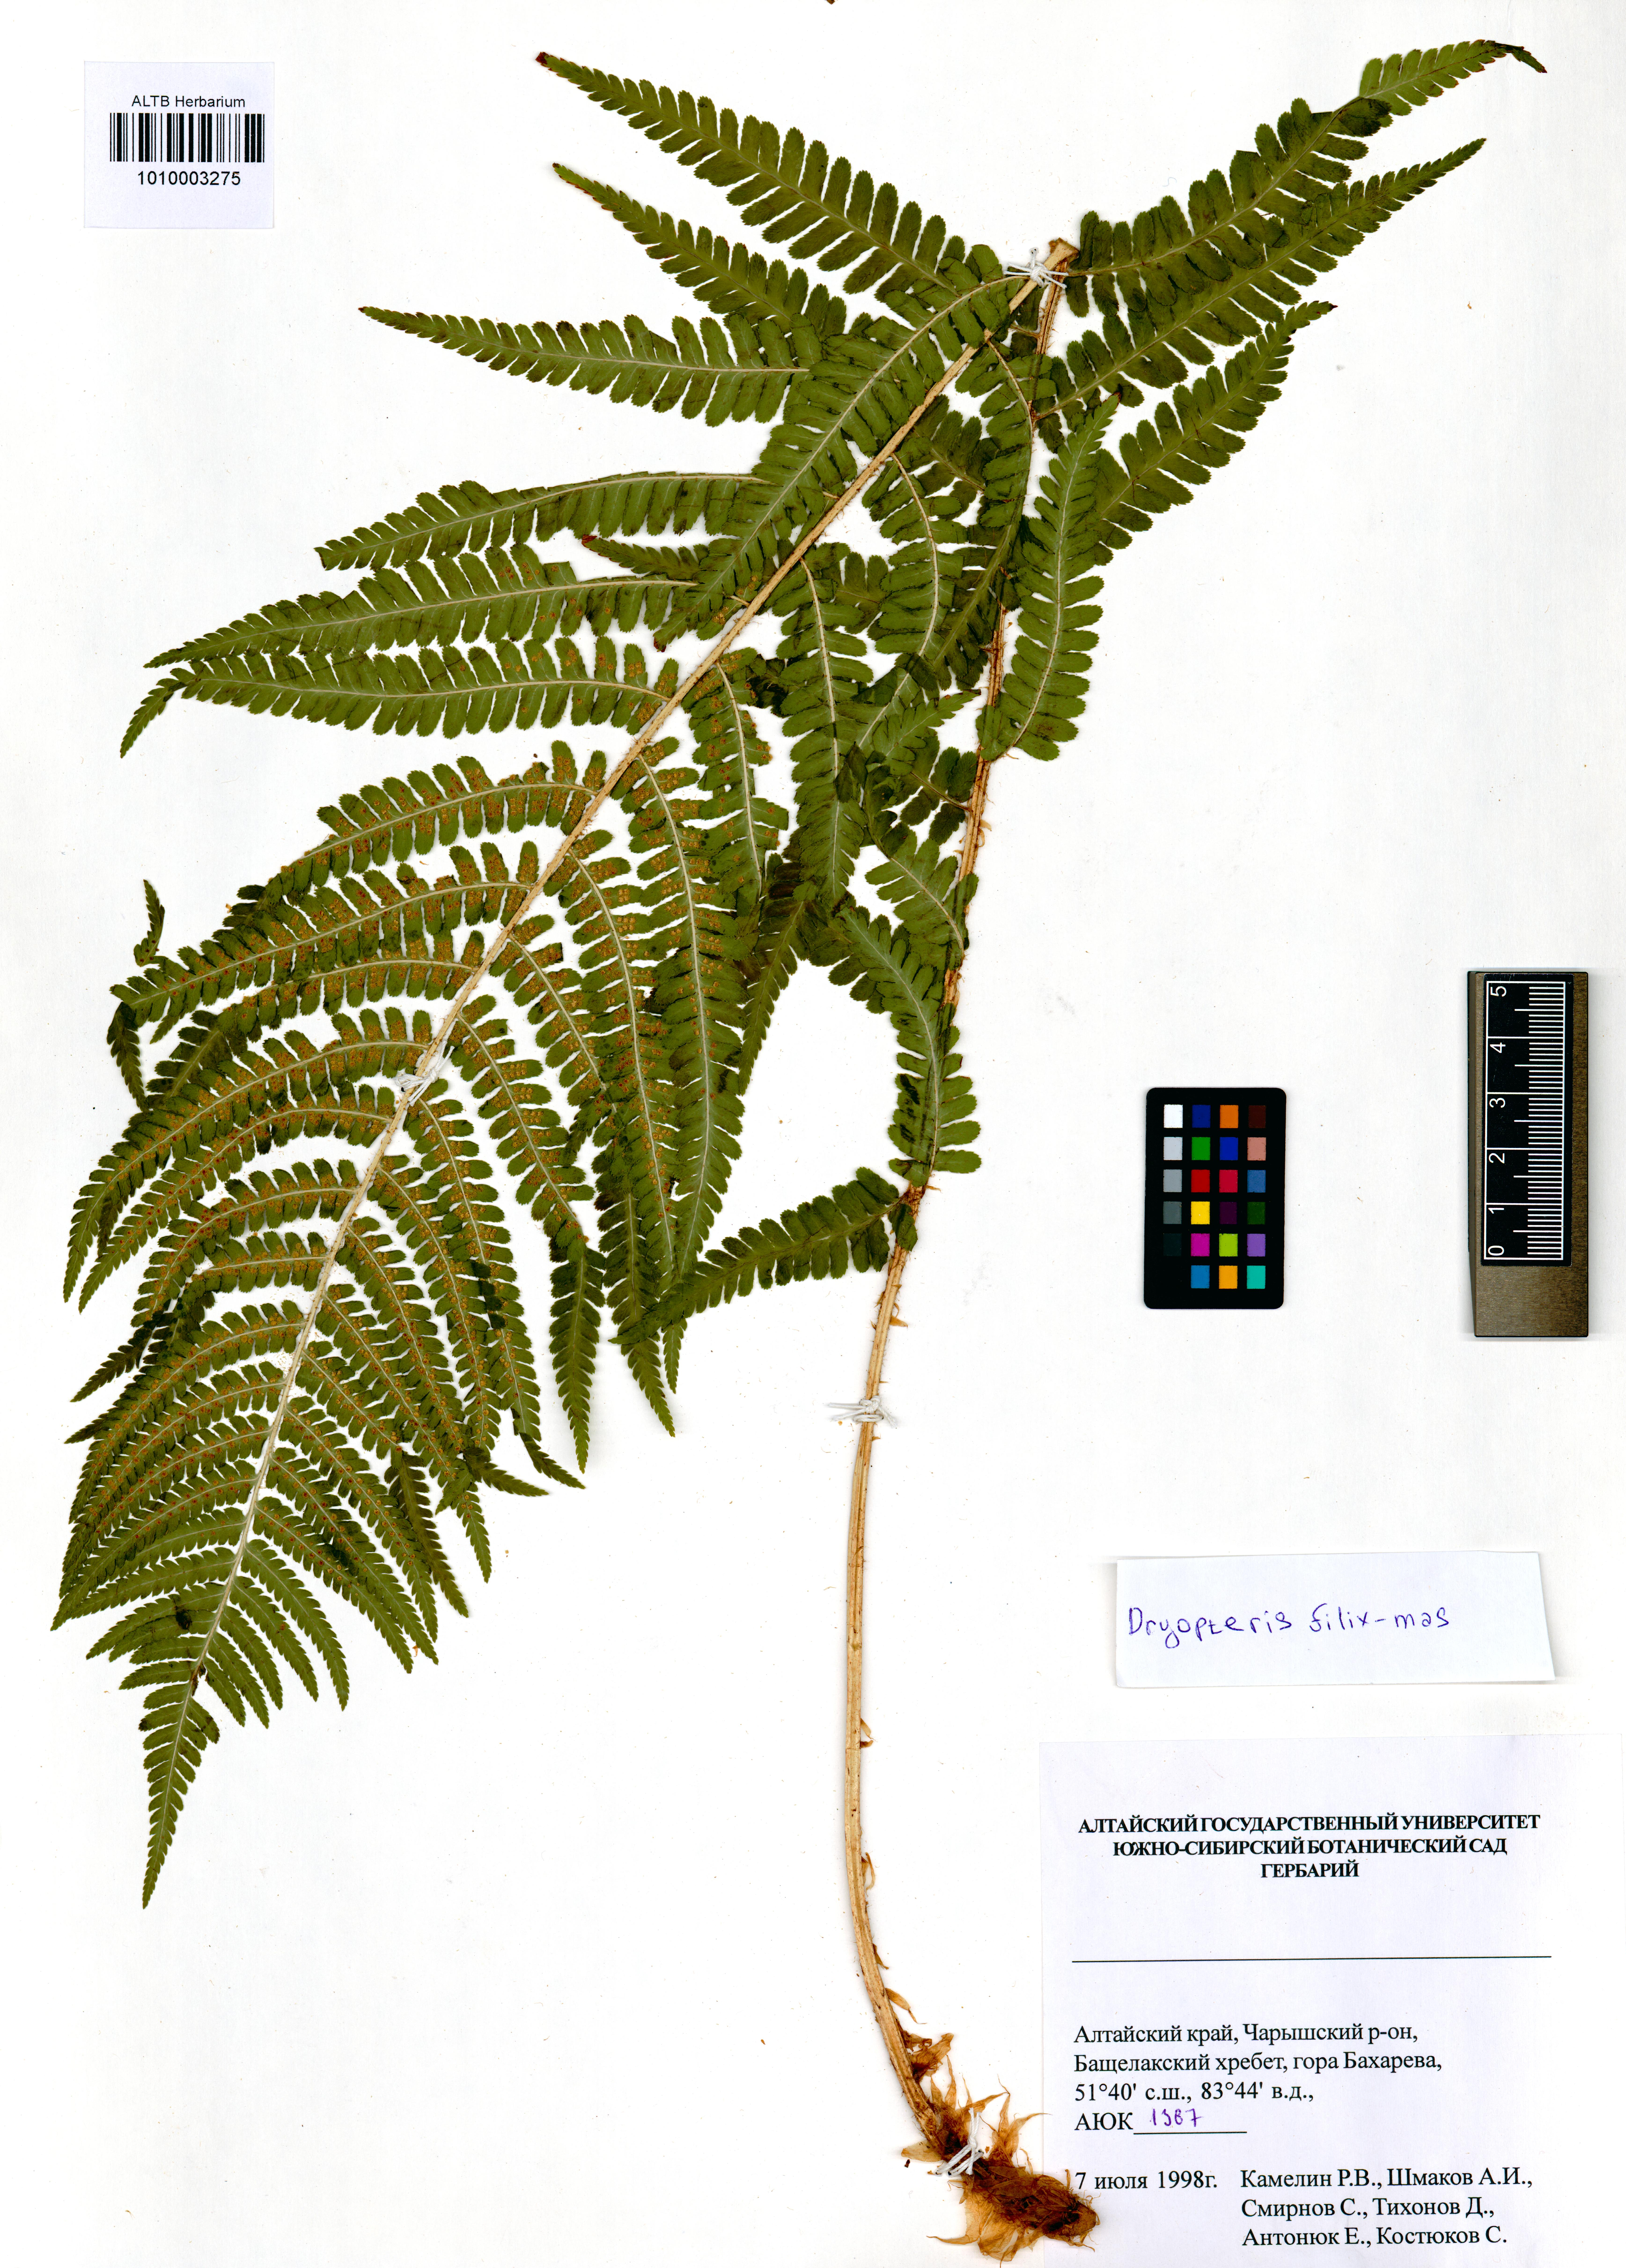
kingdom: Plantae
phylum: Tracheophyta
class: Polypodiopsida
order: Polypodiales
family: Dryopteridaceae
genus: Dryopteris
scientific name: Dryopteris filix-mas
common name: Male fern
